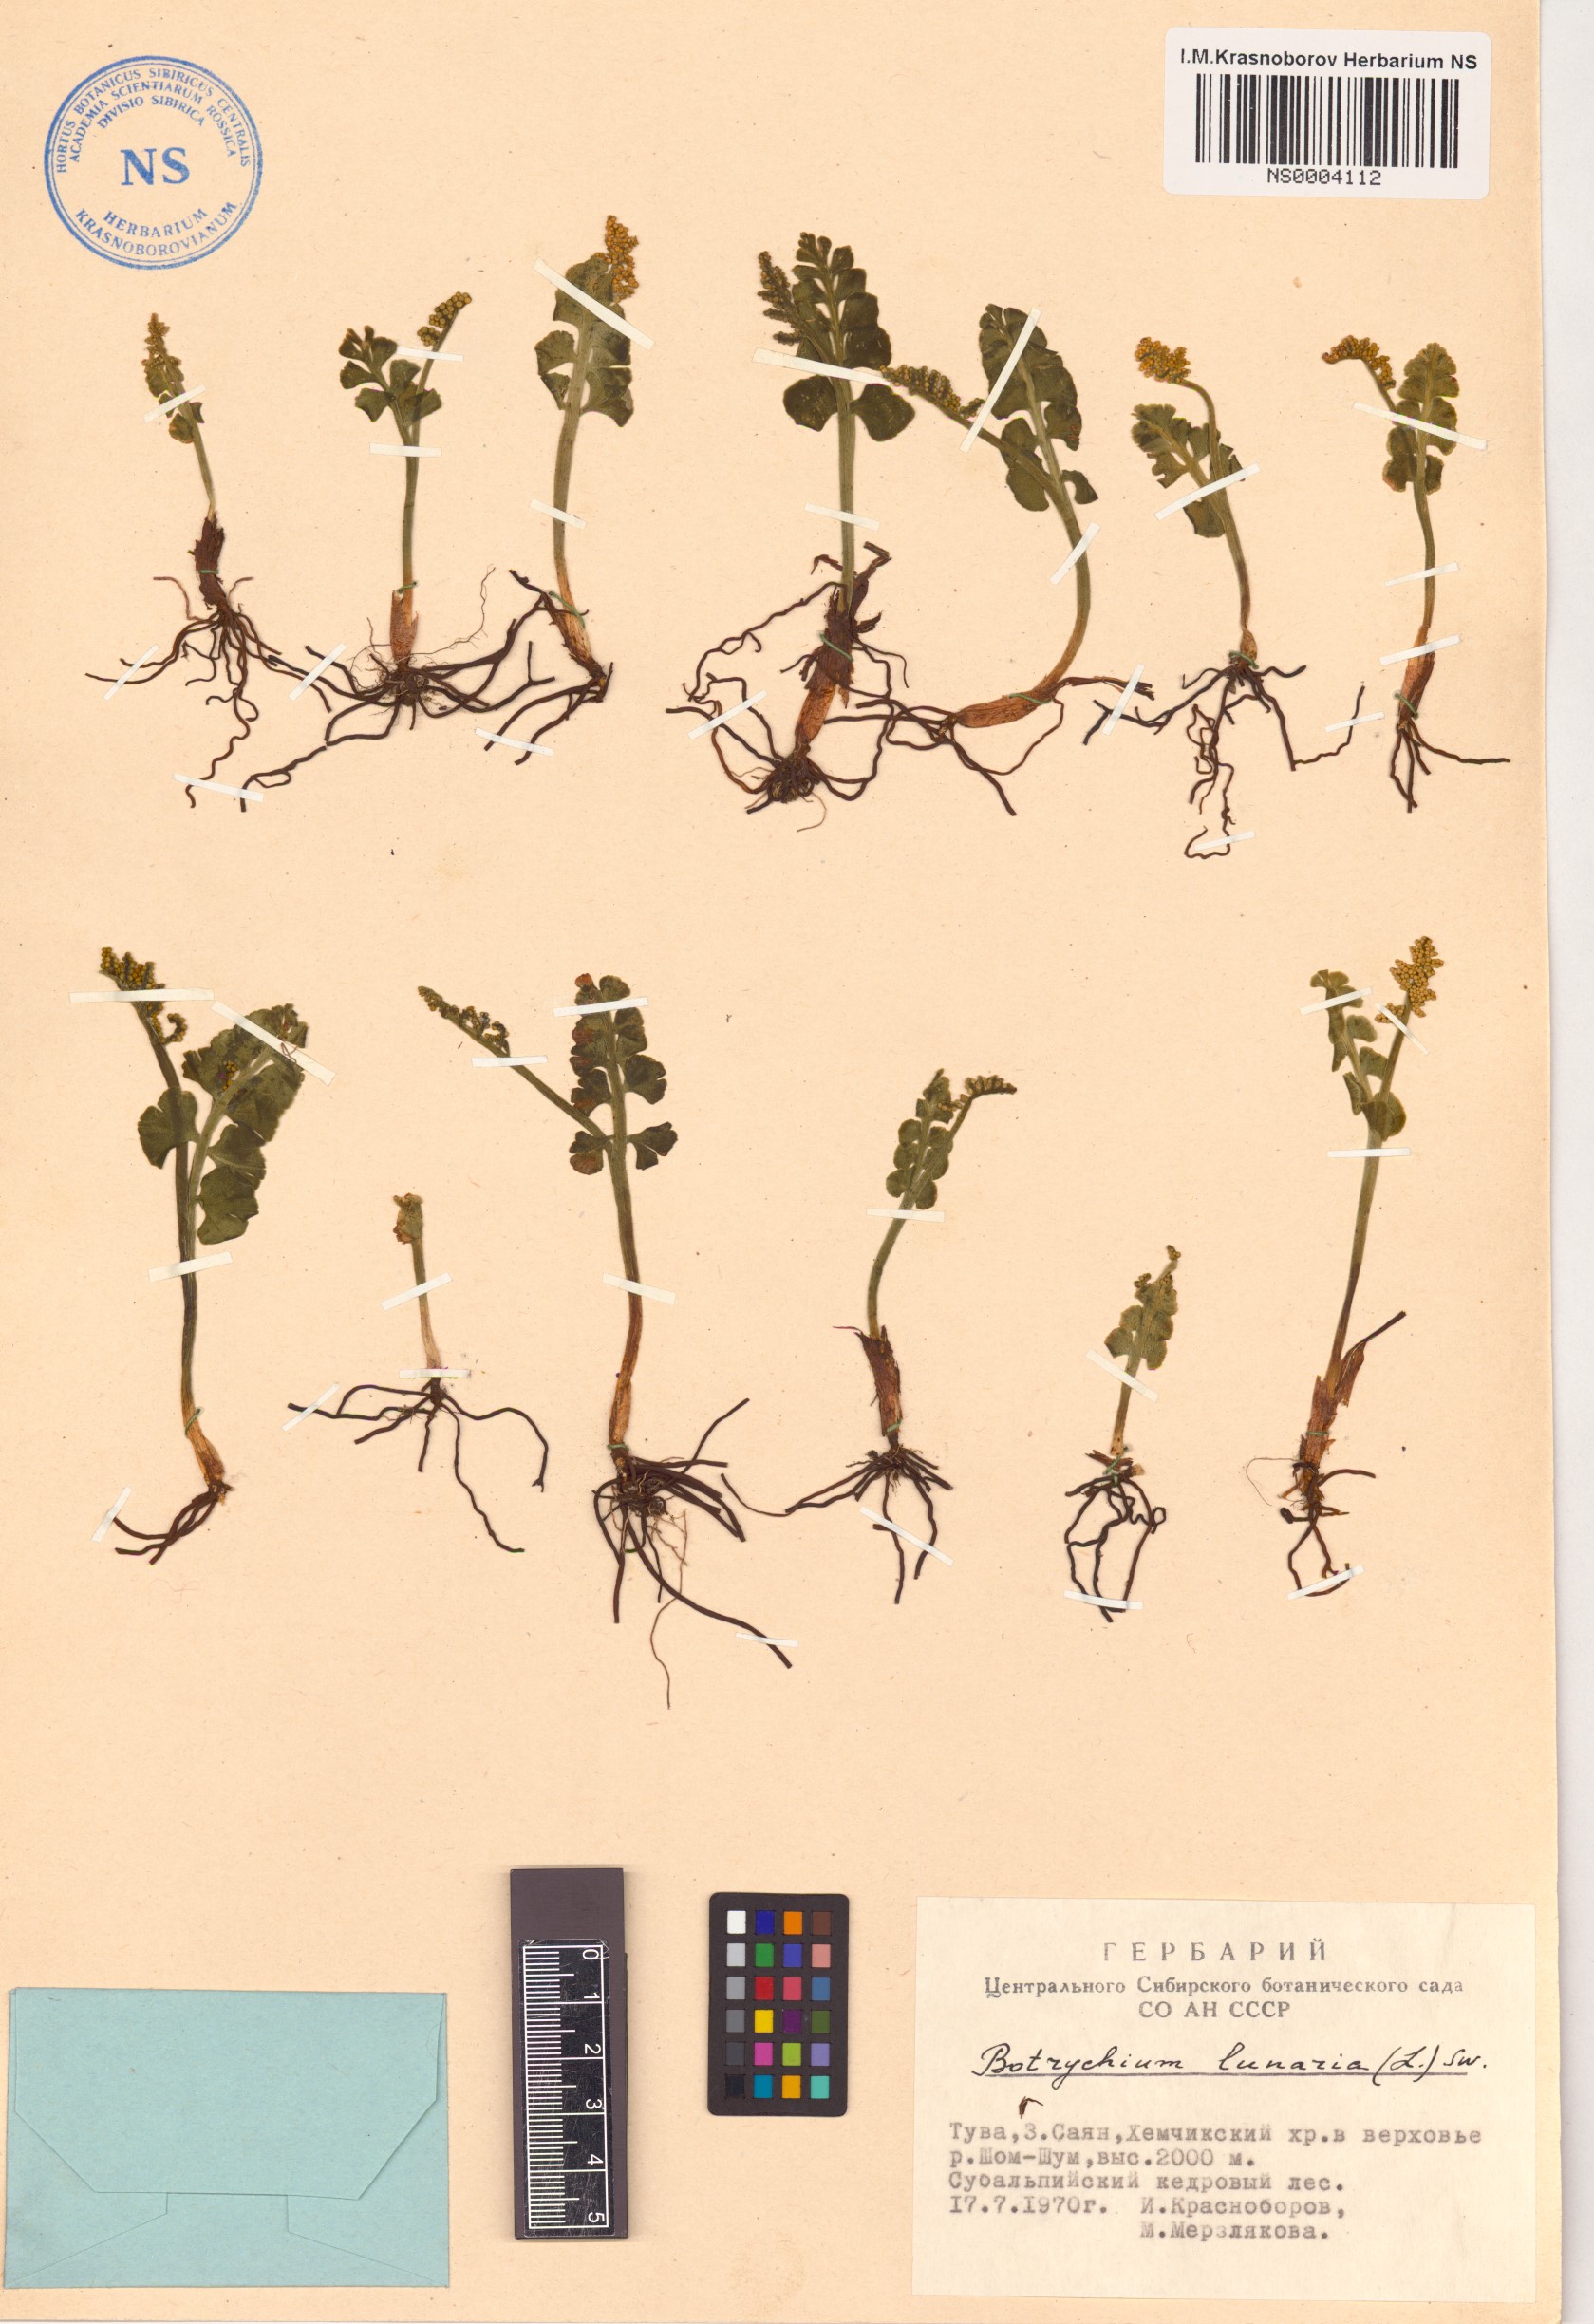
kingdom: Plantae
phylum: Tracheophyta
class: Polypodiopsida
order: Ophioglossales
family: Ophioglossaceae
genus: Botrychium
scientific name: Botrychium lunaria
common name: Moonwort
